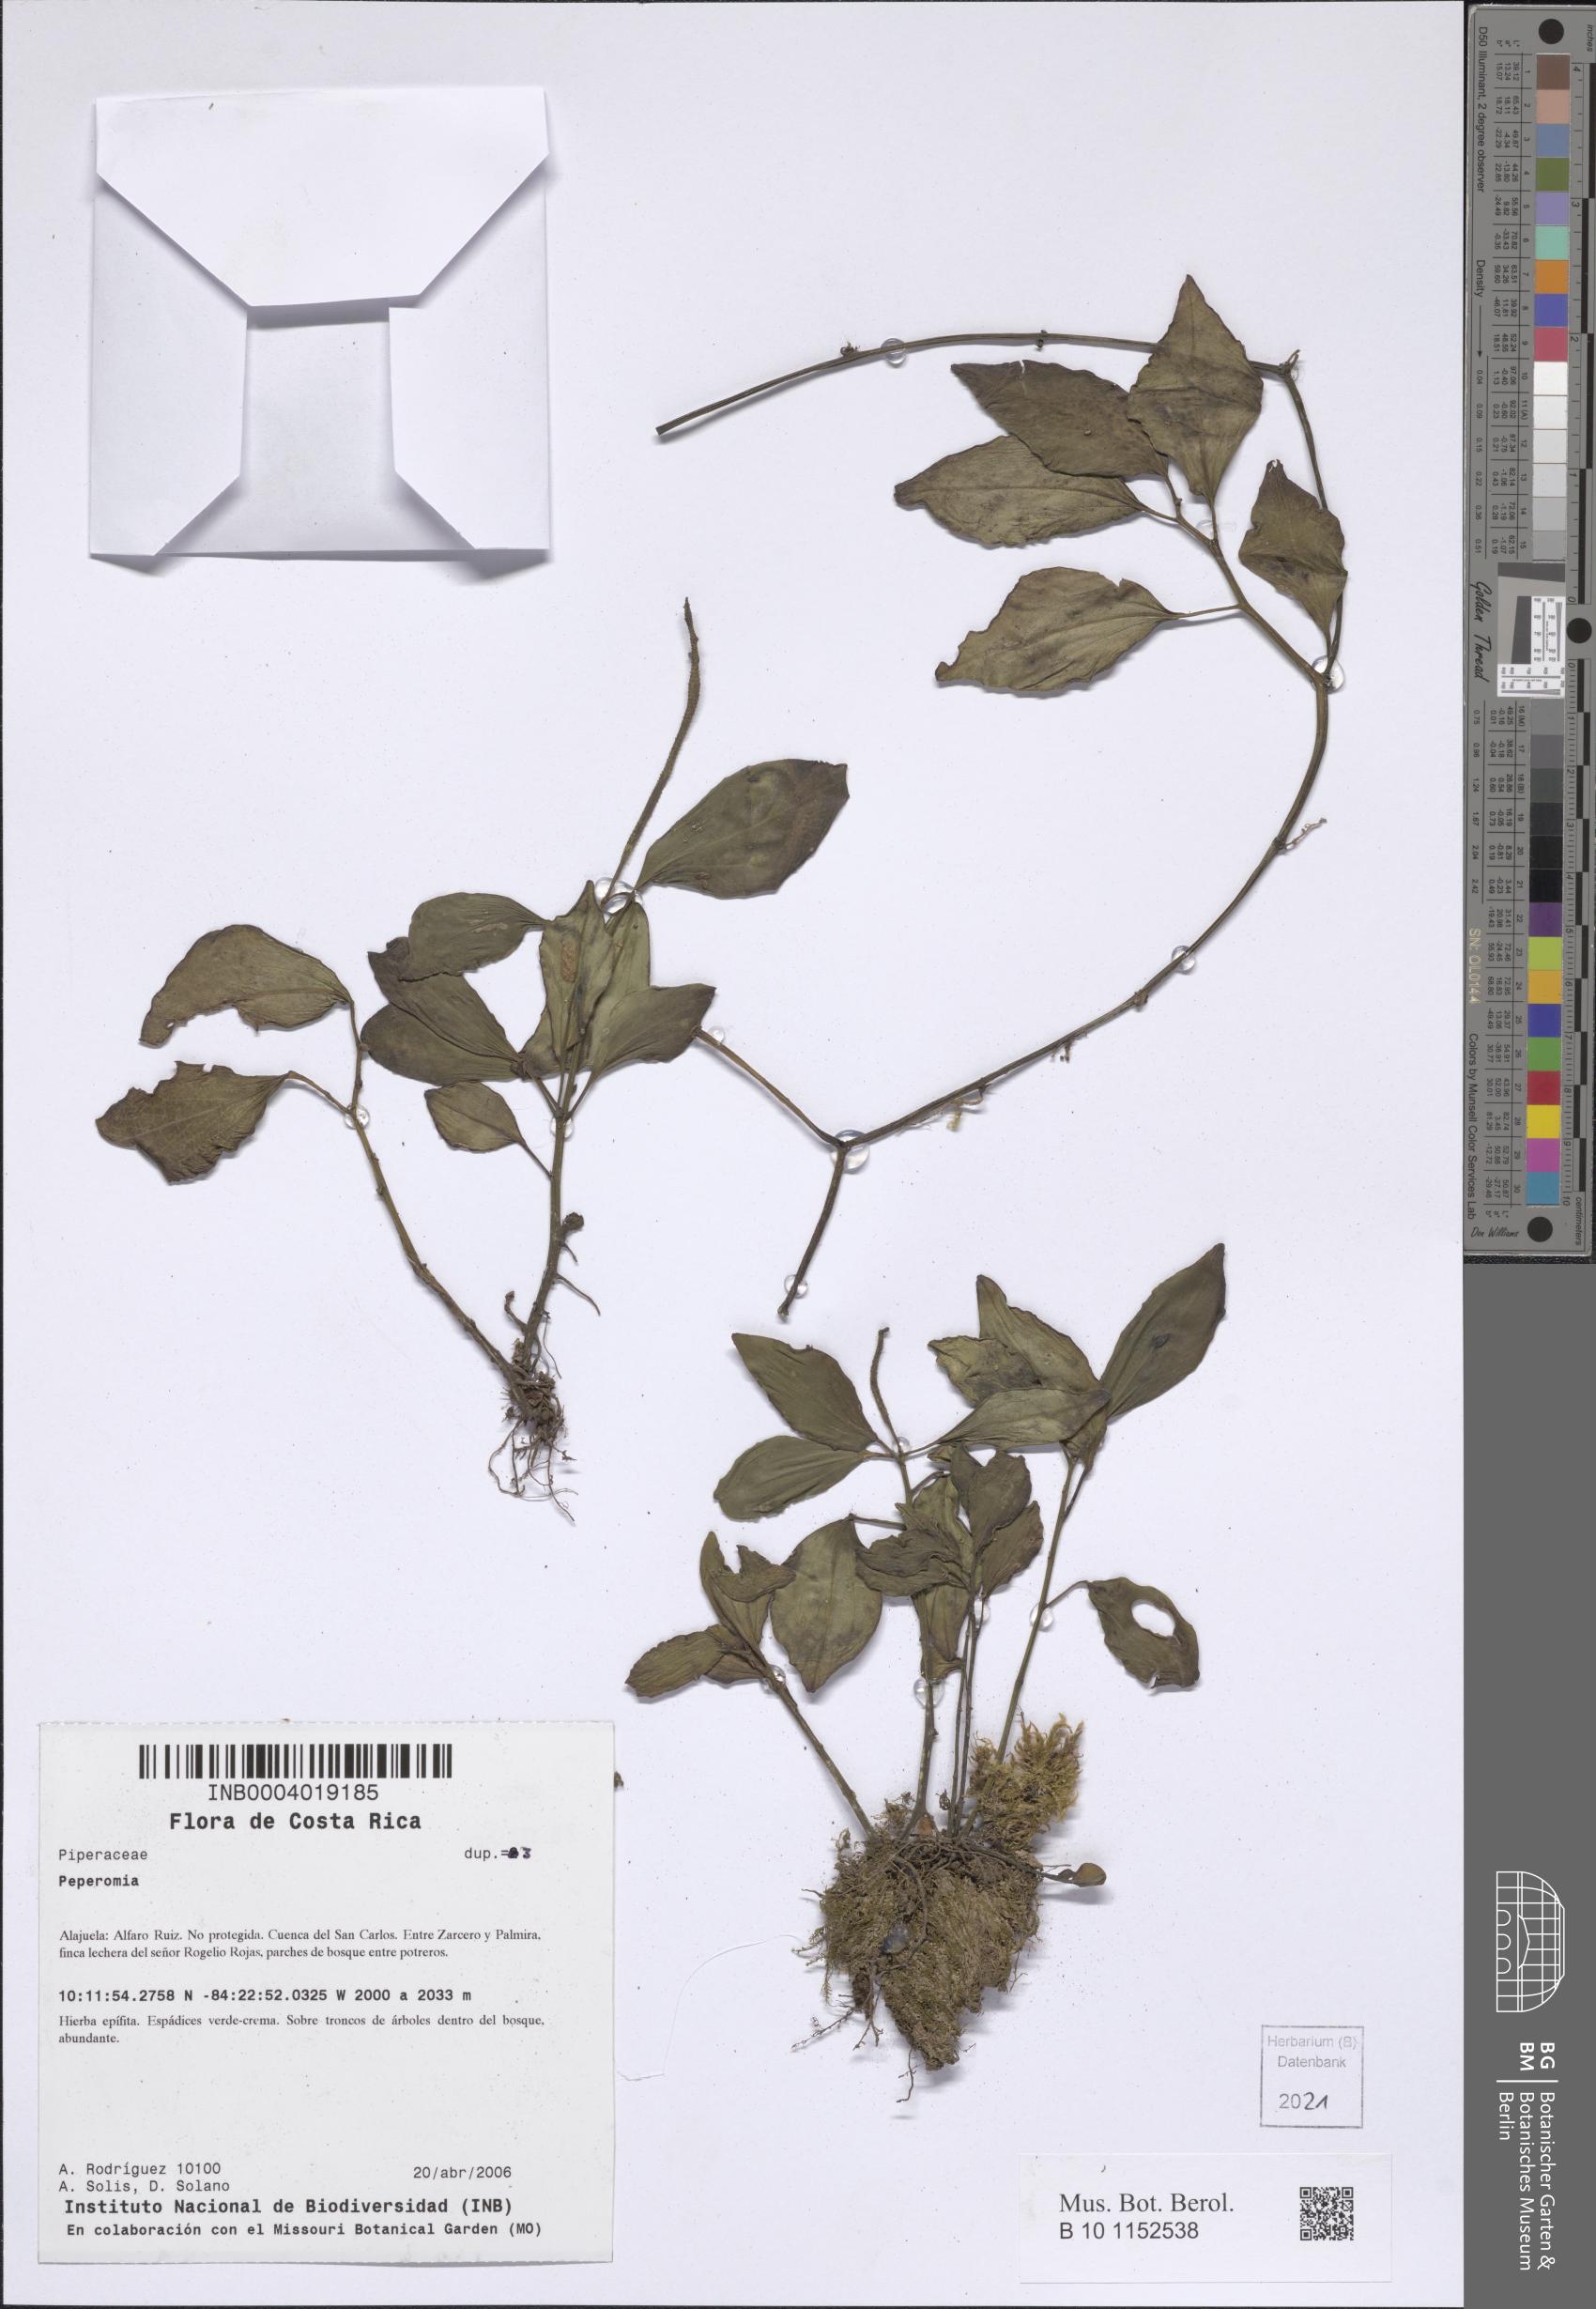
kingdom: Plantae
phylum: Tracheophyta
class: Magnoliopsida
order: Piperales
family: Piperaceae
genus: Peperomia
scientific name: Peperomia
